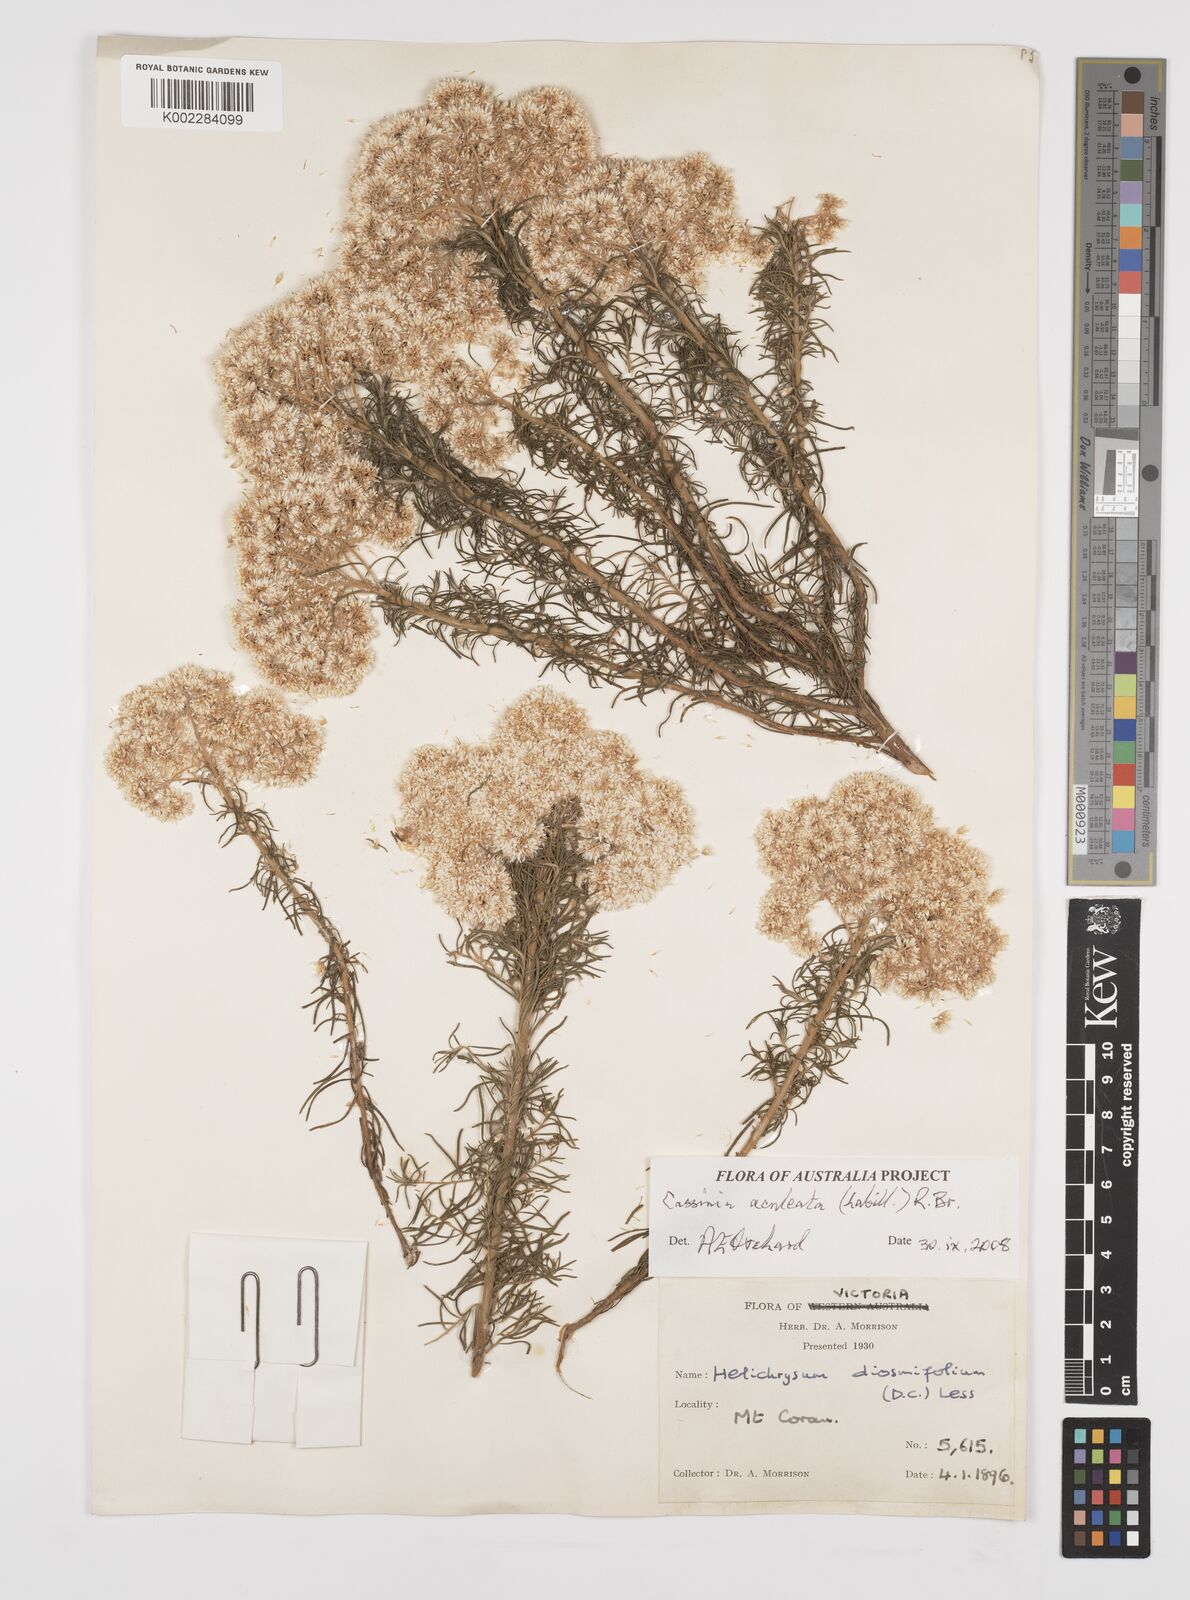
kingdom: Plantae
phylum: Tracheophyta
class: Magnoliopsida
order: Asterales
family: Asteraceae
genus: Cassinia
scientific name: Cassinia aculeata
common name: Australian tauhinu
